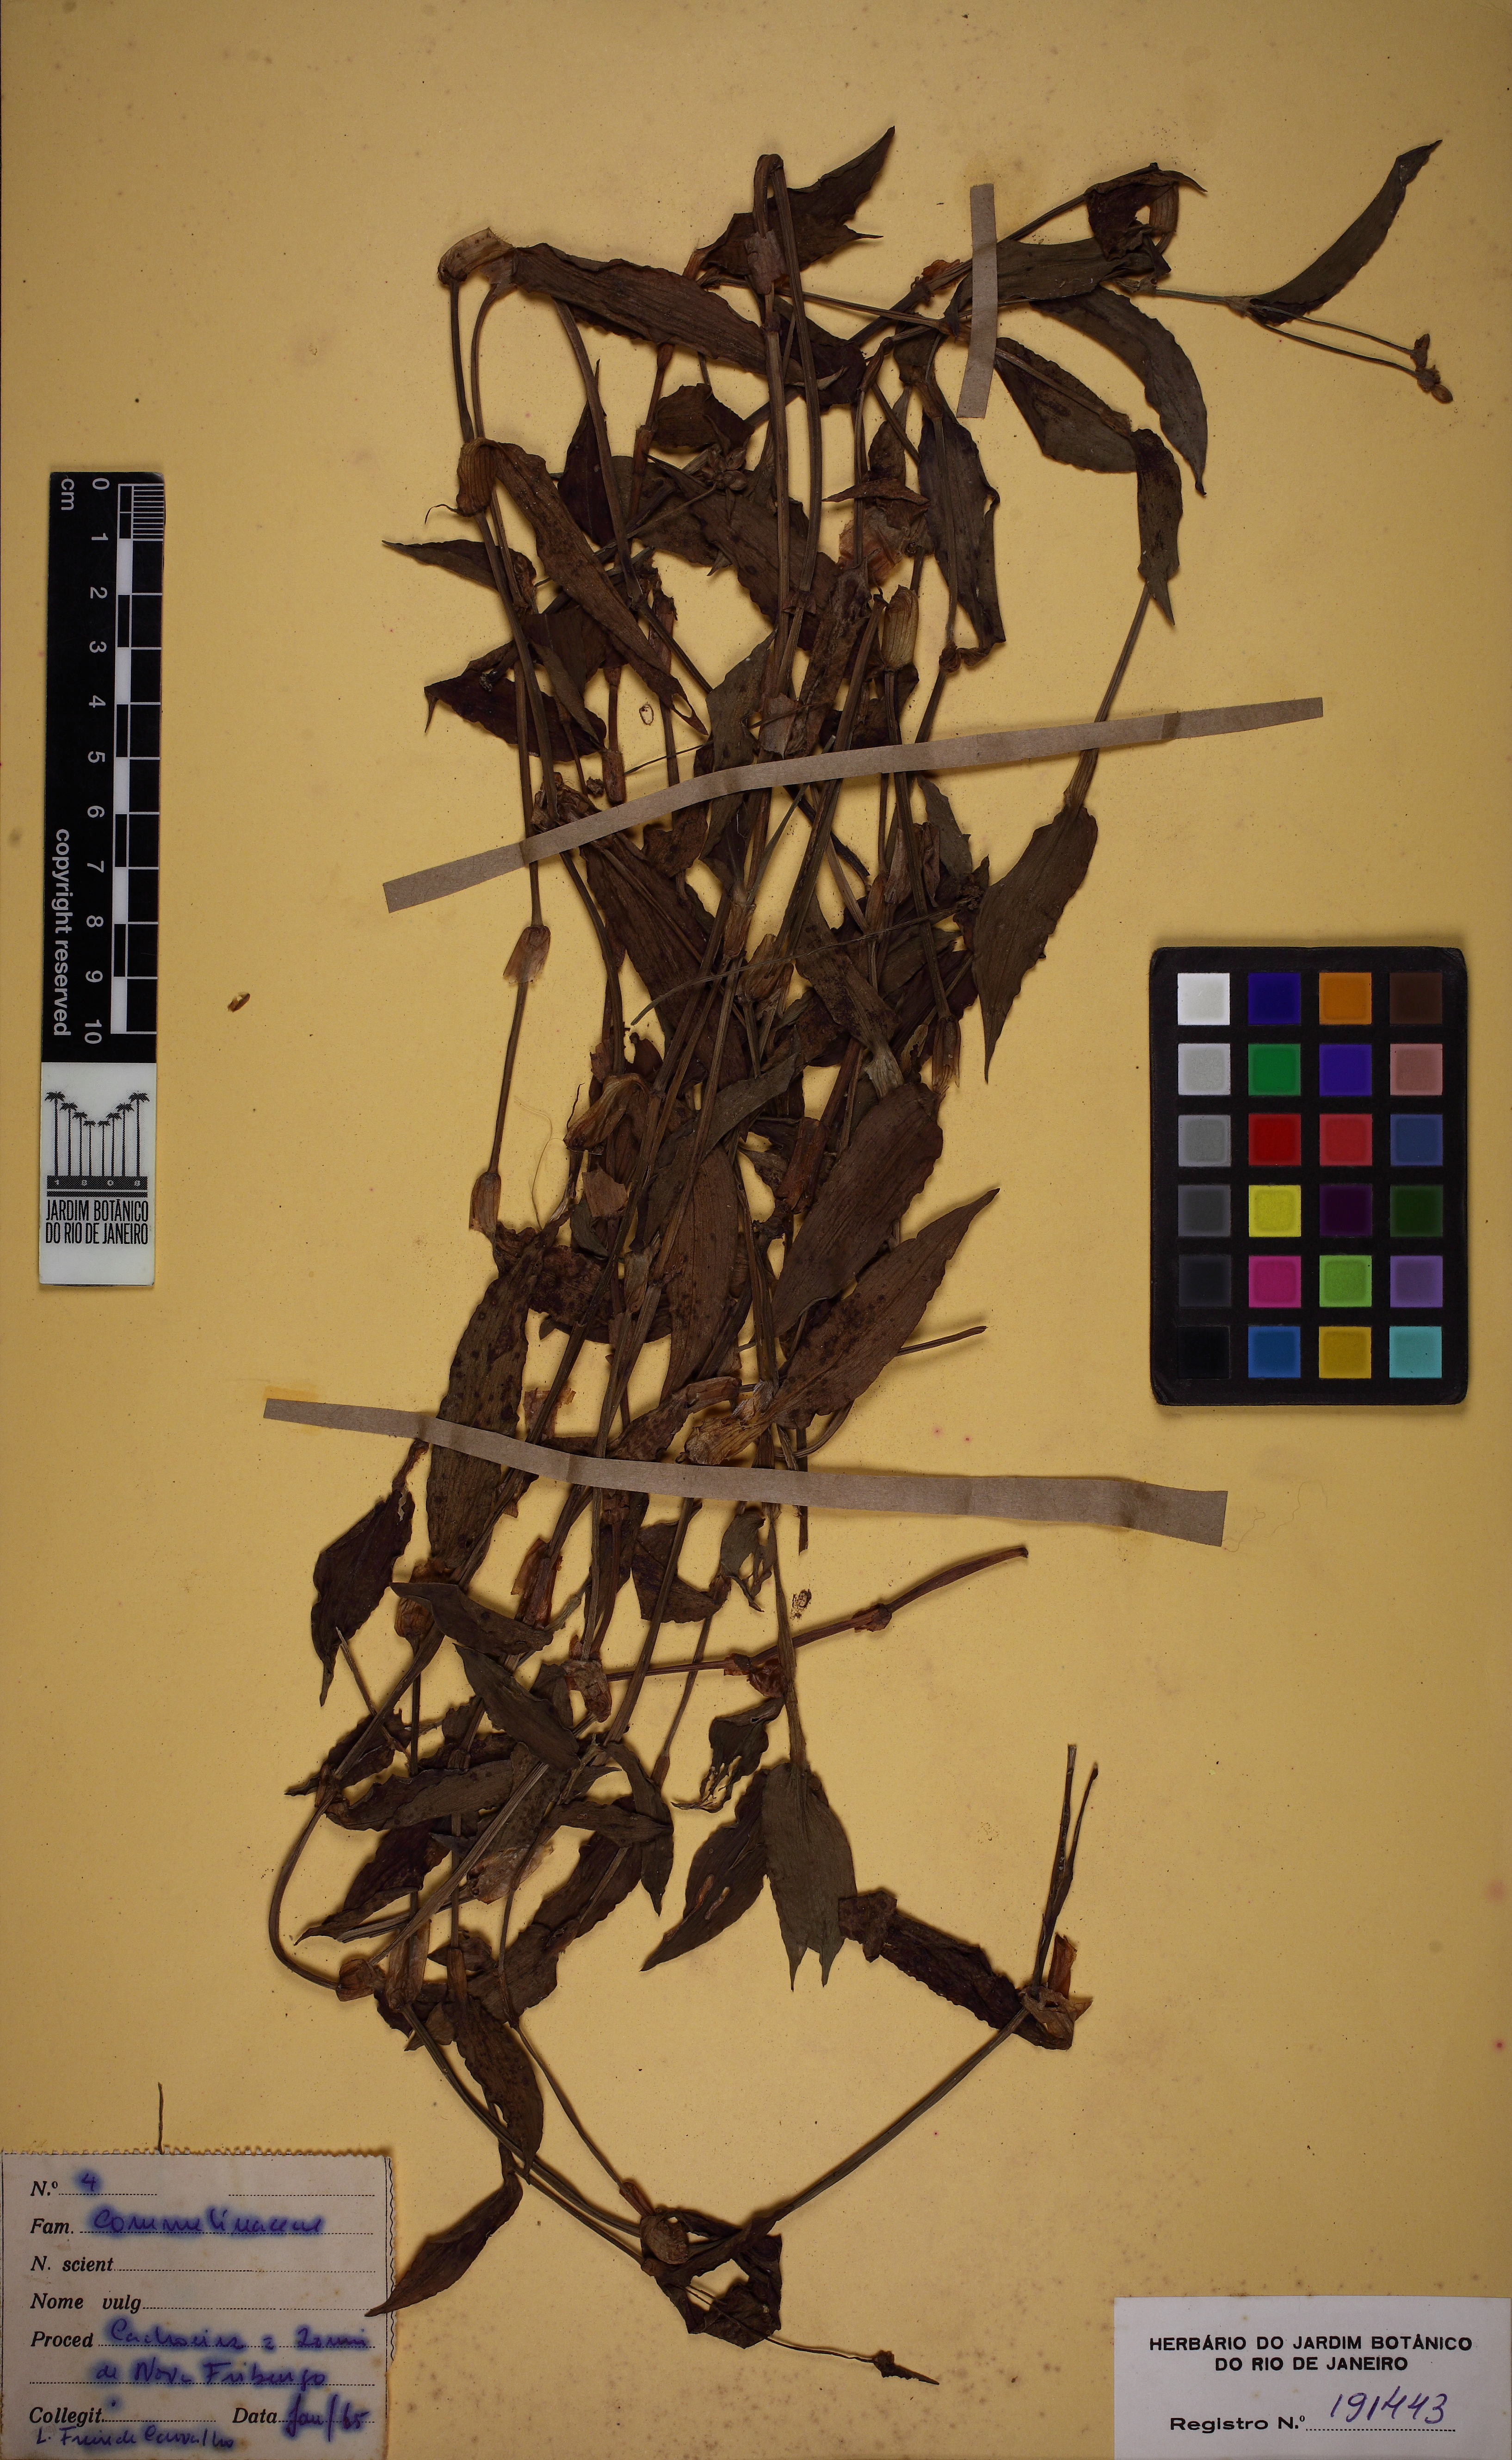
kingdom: Plantae
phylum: Tracheophyta
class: Liliopsida
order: Commelinales
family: Commelinaceae
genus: Callisia
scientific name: Callisia diuretica
